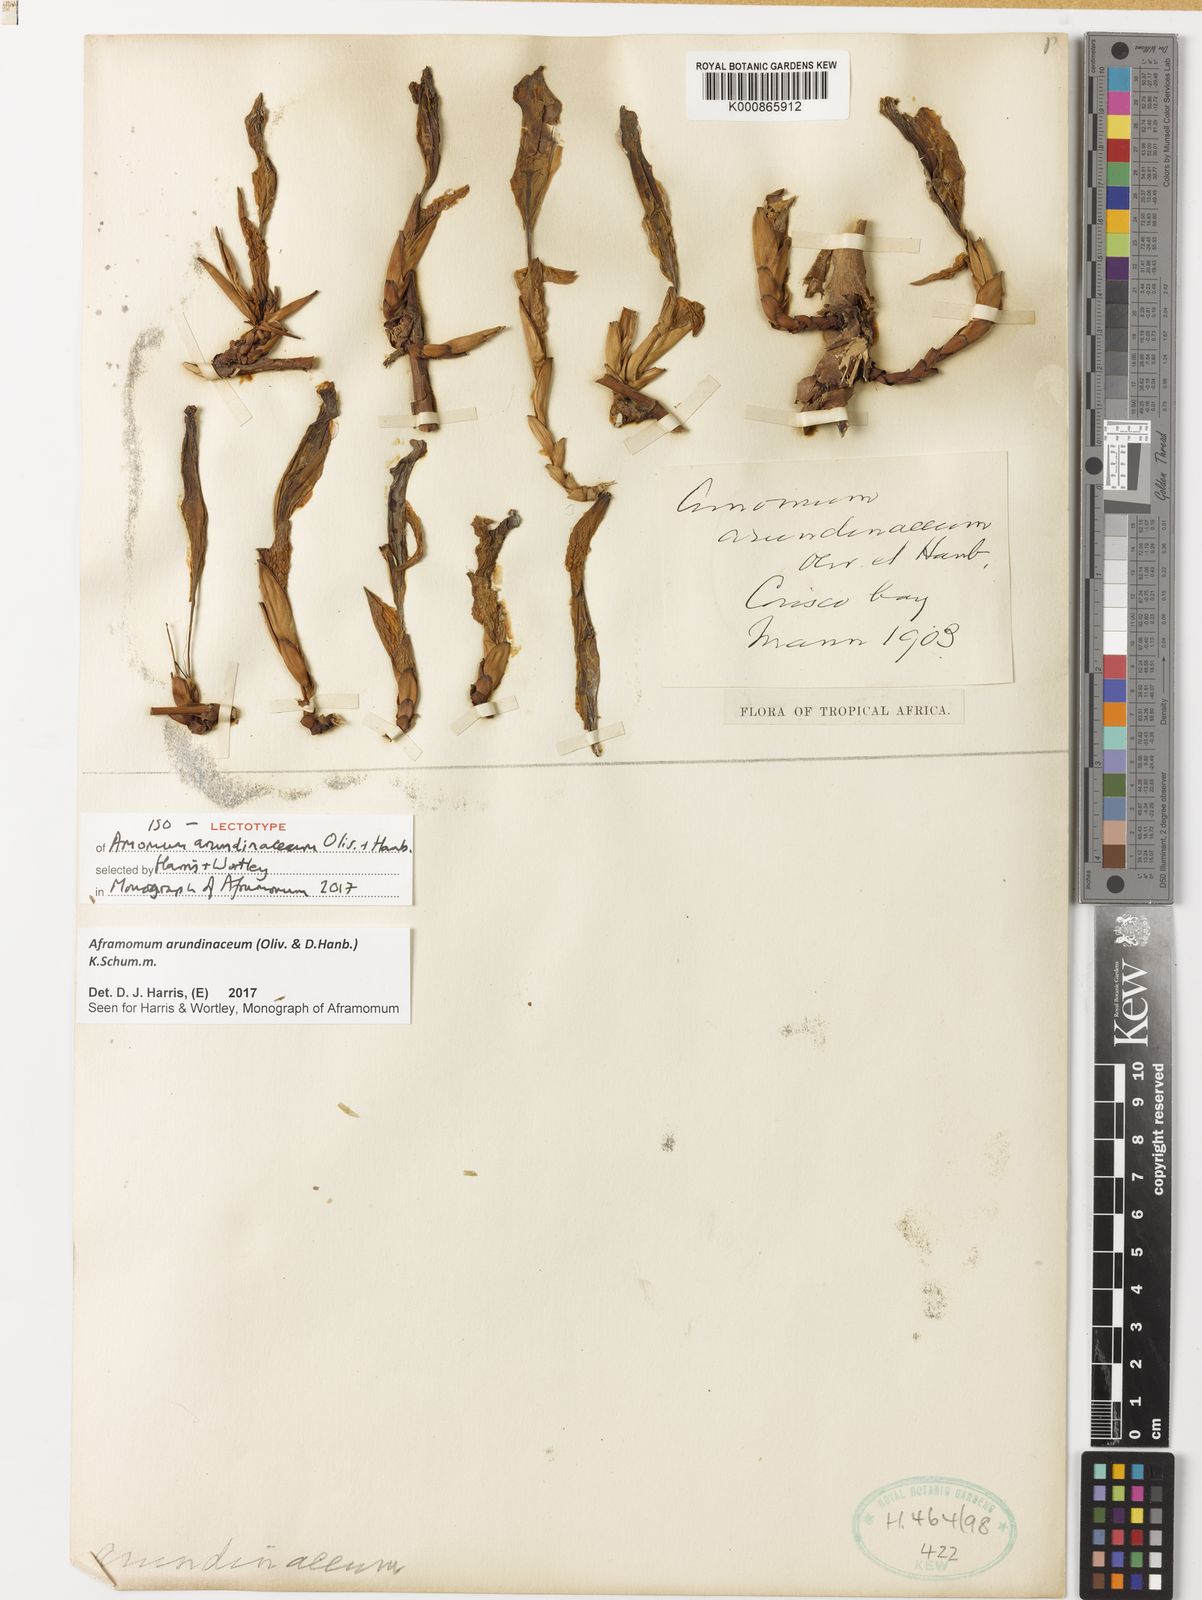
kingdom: Plantae
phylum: Tracheophyta
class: Liliopsida
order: Zingiberales
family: Zingiberaceae
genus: Aframomum
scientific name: Aframomum arundinaceum
